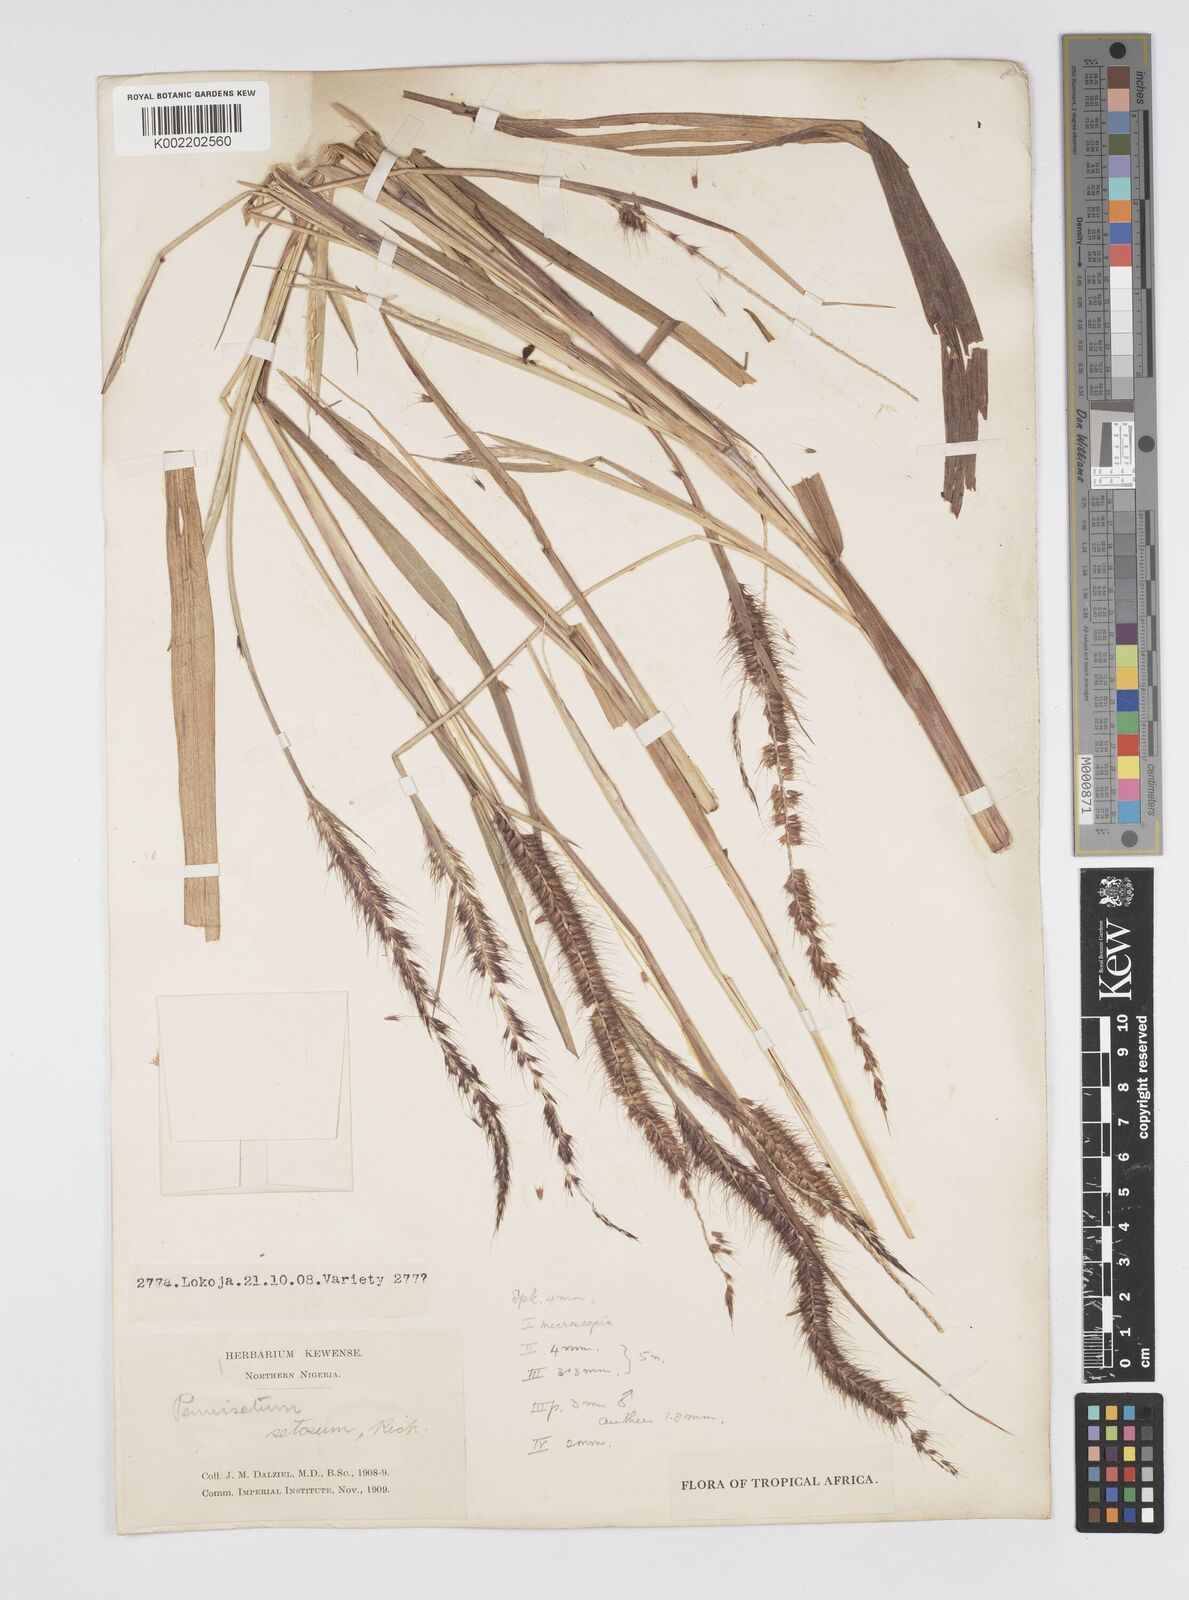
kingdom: Plantae
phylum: Tracheophyta
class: Liliopsida
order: Poales
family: Poaceae
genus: Setaria
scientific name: Setaria parviflora
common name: Knotroot bristle-grass
